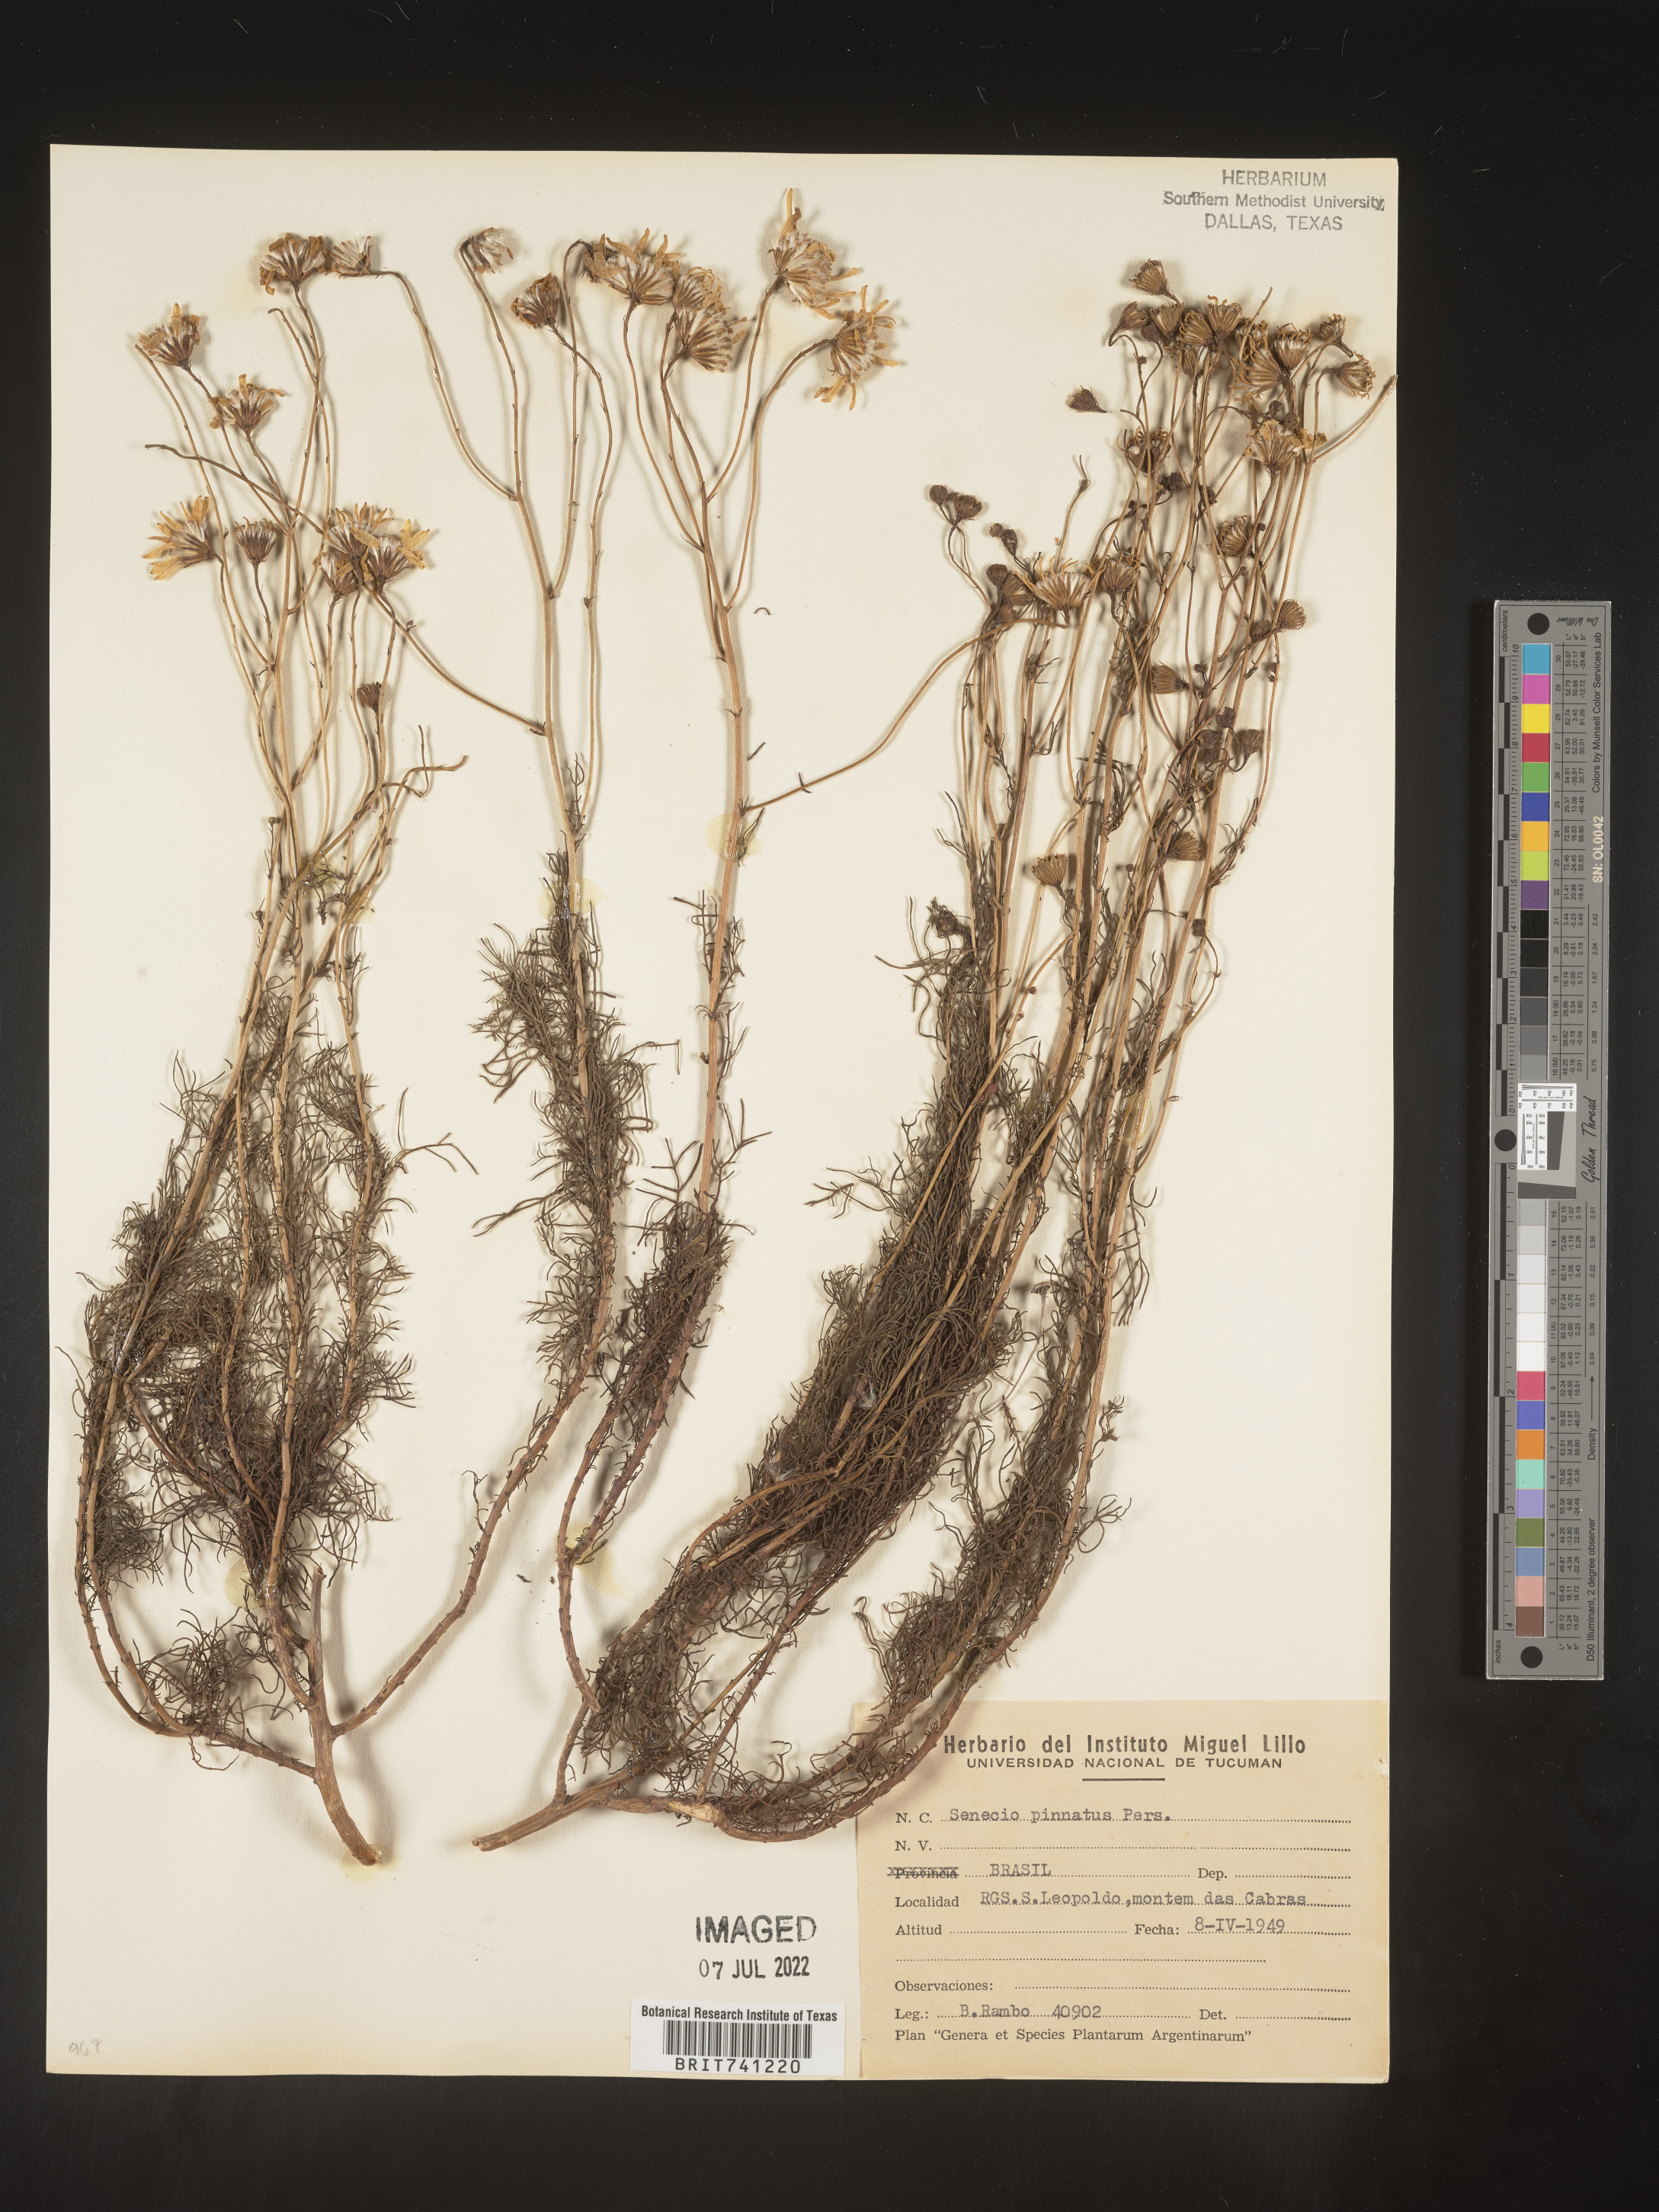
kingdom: Plantae
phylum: Tracheophyta
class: Magnoliopsida
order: Asterales
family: Asteraceae
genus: Senecio
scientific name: Senecio
